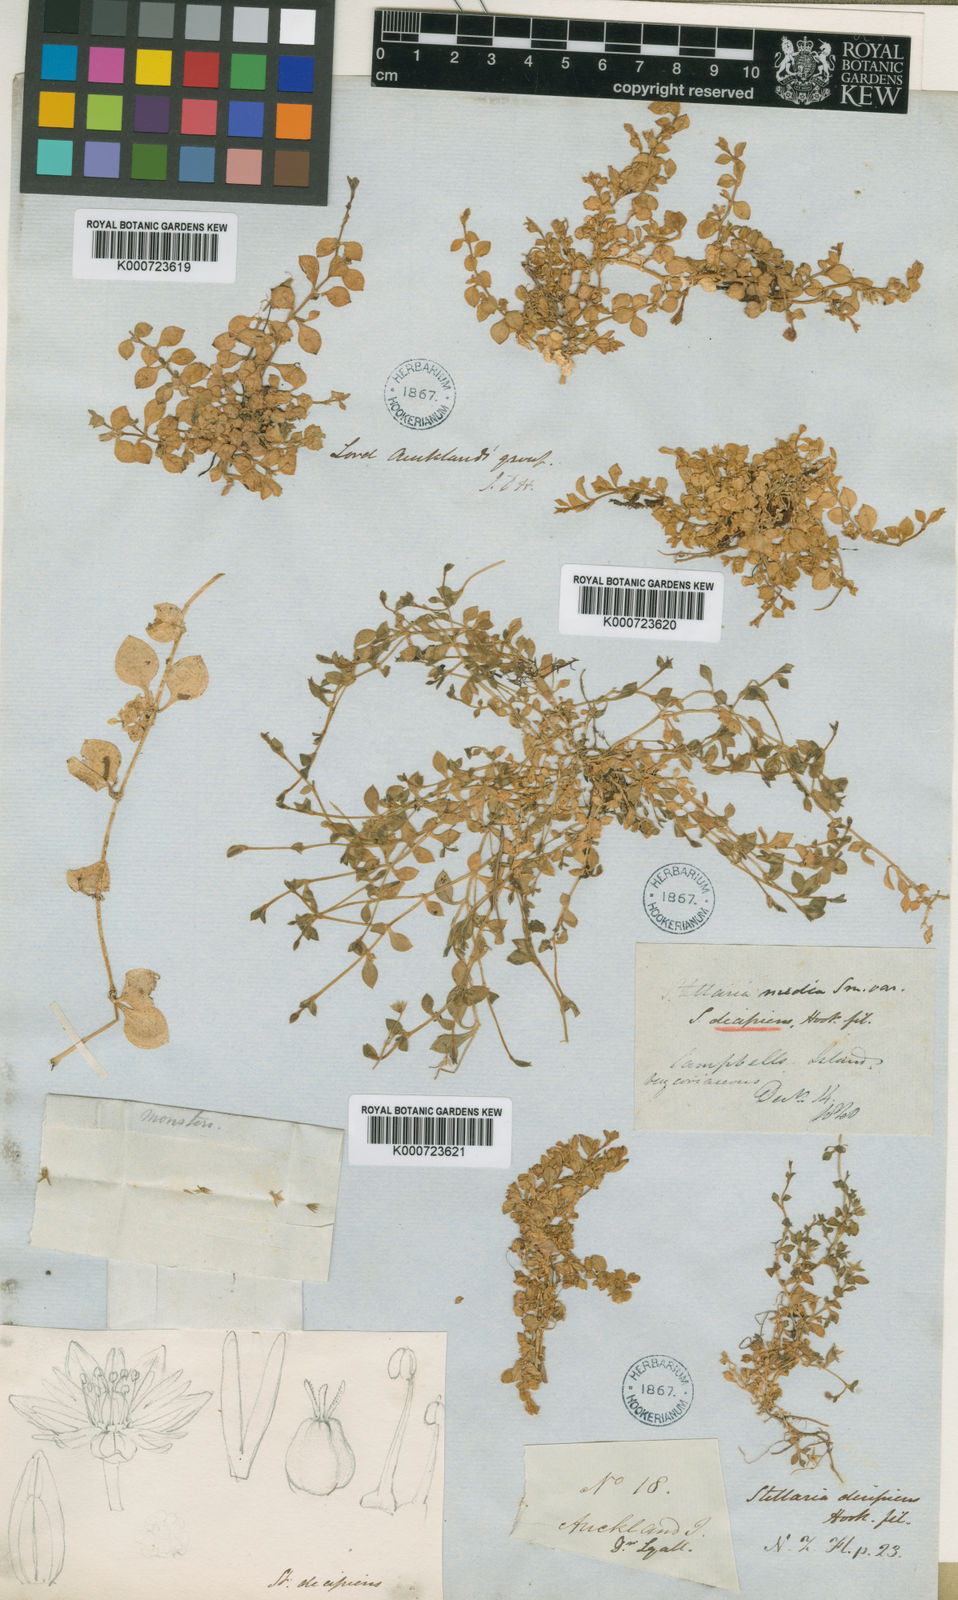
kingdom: Plantae
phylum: Tracheophyta
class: Magnoliopsida
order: Caryophyllales
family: Caryophyllaceae
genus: Stellaria
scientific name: Stellaria decipiens
